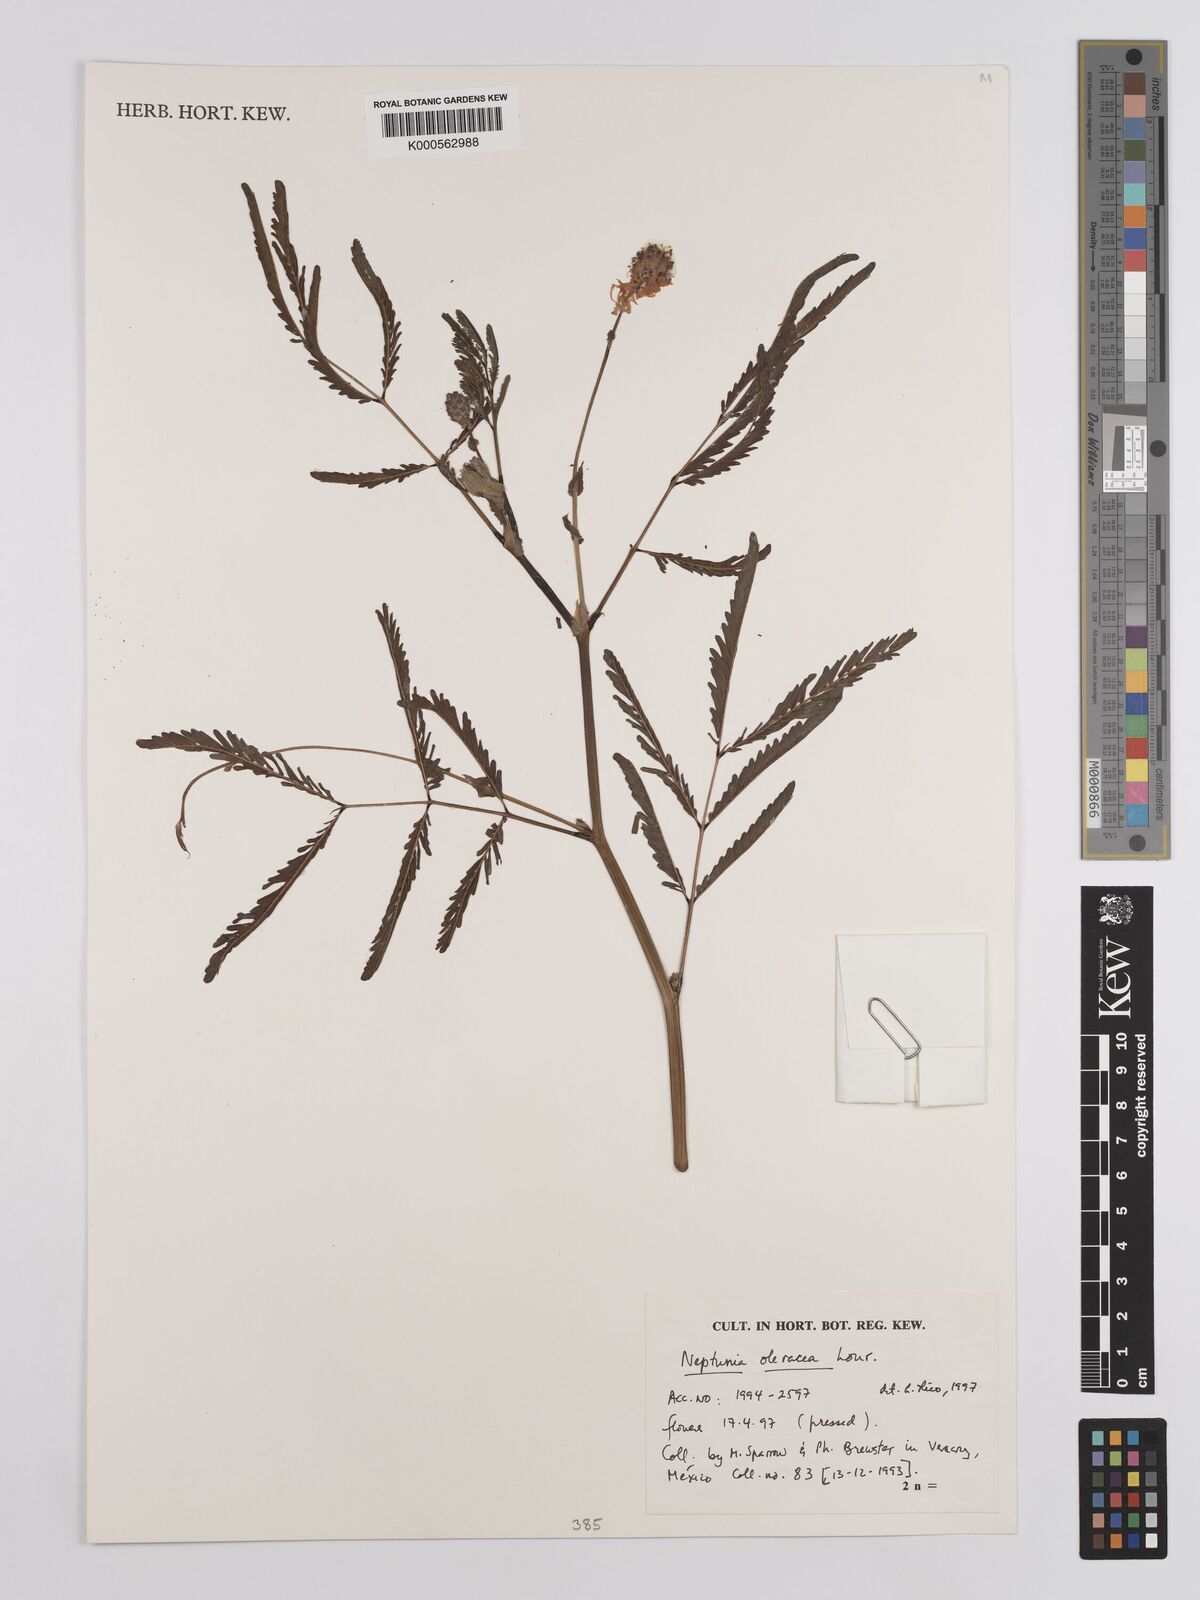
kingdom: Plantae
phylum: Tracheophyta
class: Magnoliopsida
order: Fabales
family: Fabaceae
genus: Neptunia
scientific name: Neptunia prostrata
